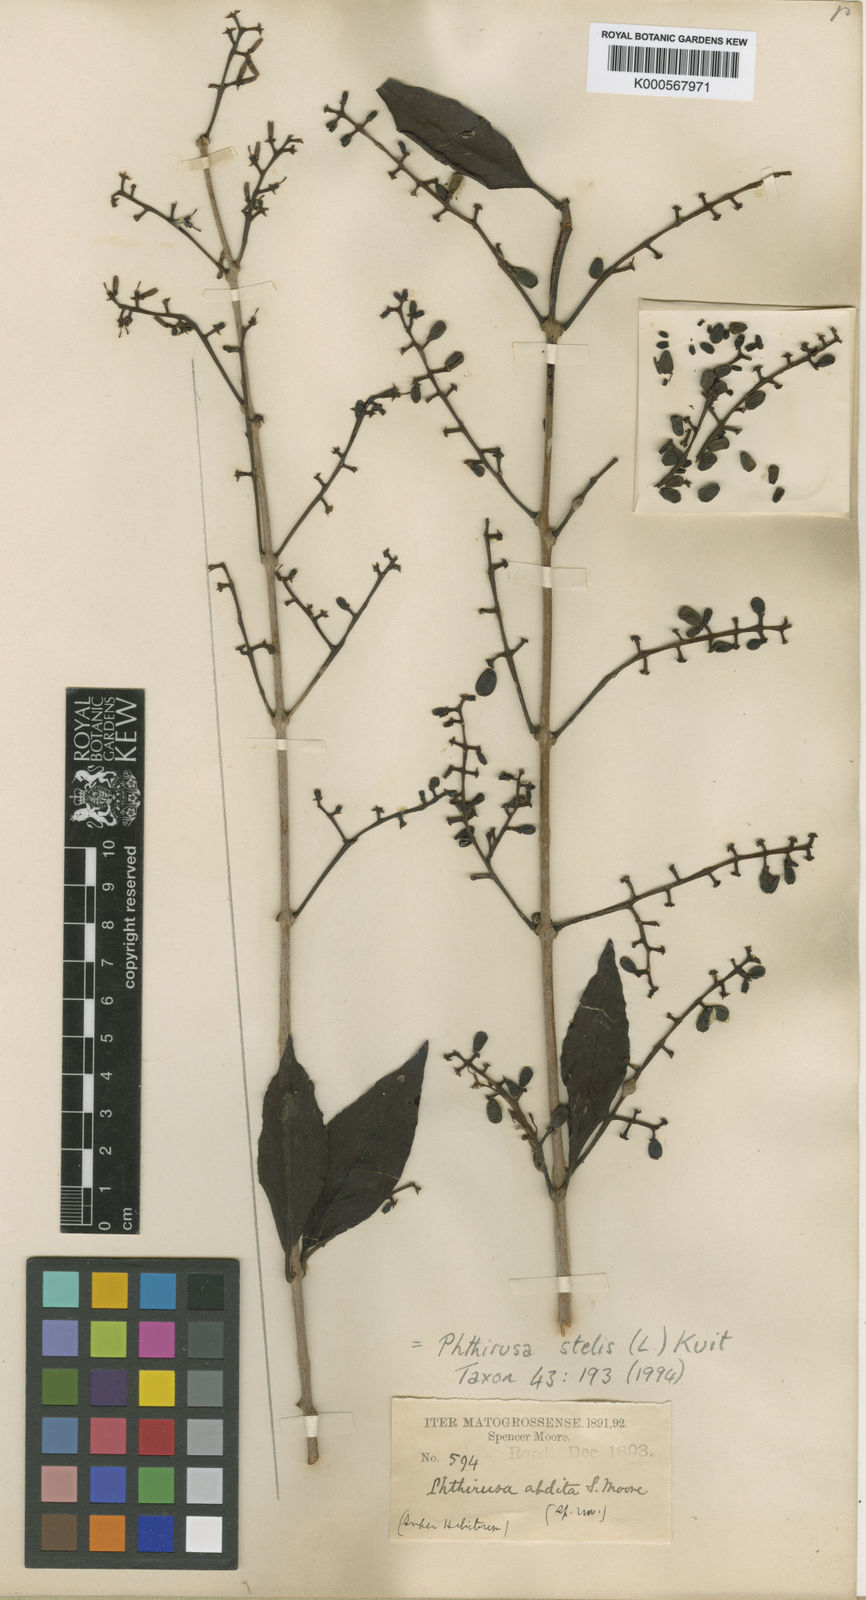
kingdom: Plantae
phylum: Tracheophyta
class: Magnoliopsida
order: Santalales
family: Loranthaceae
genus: Passovia
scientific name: Passovia pedunculata
